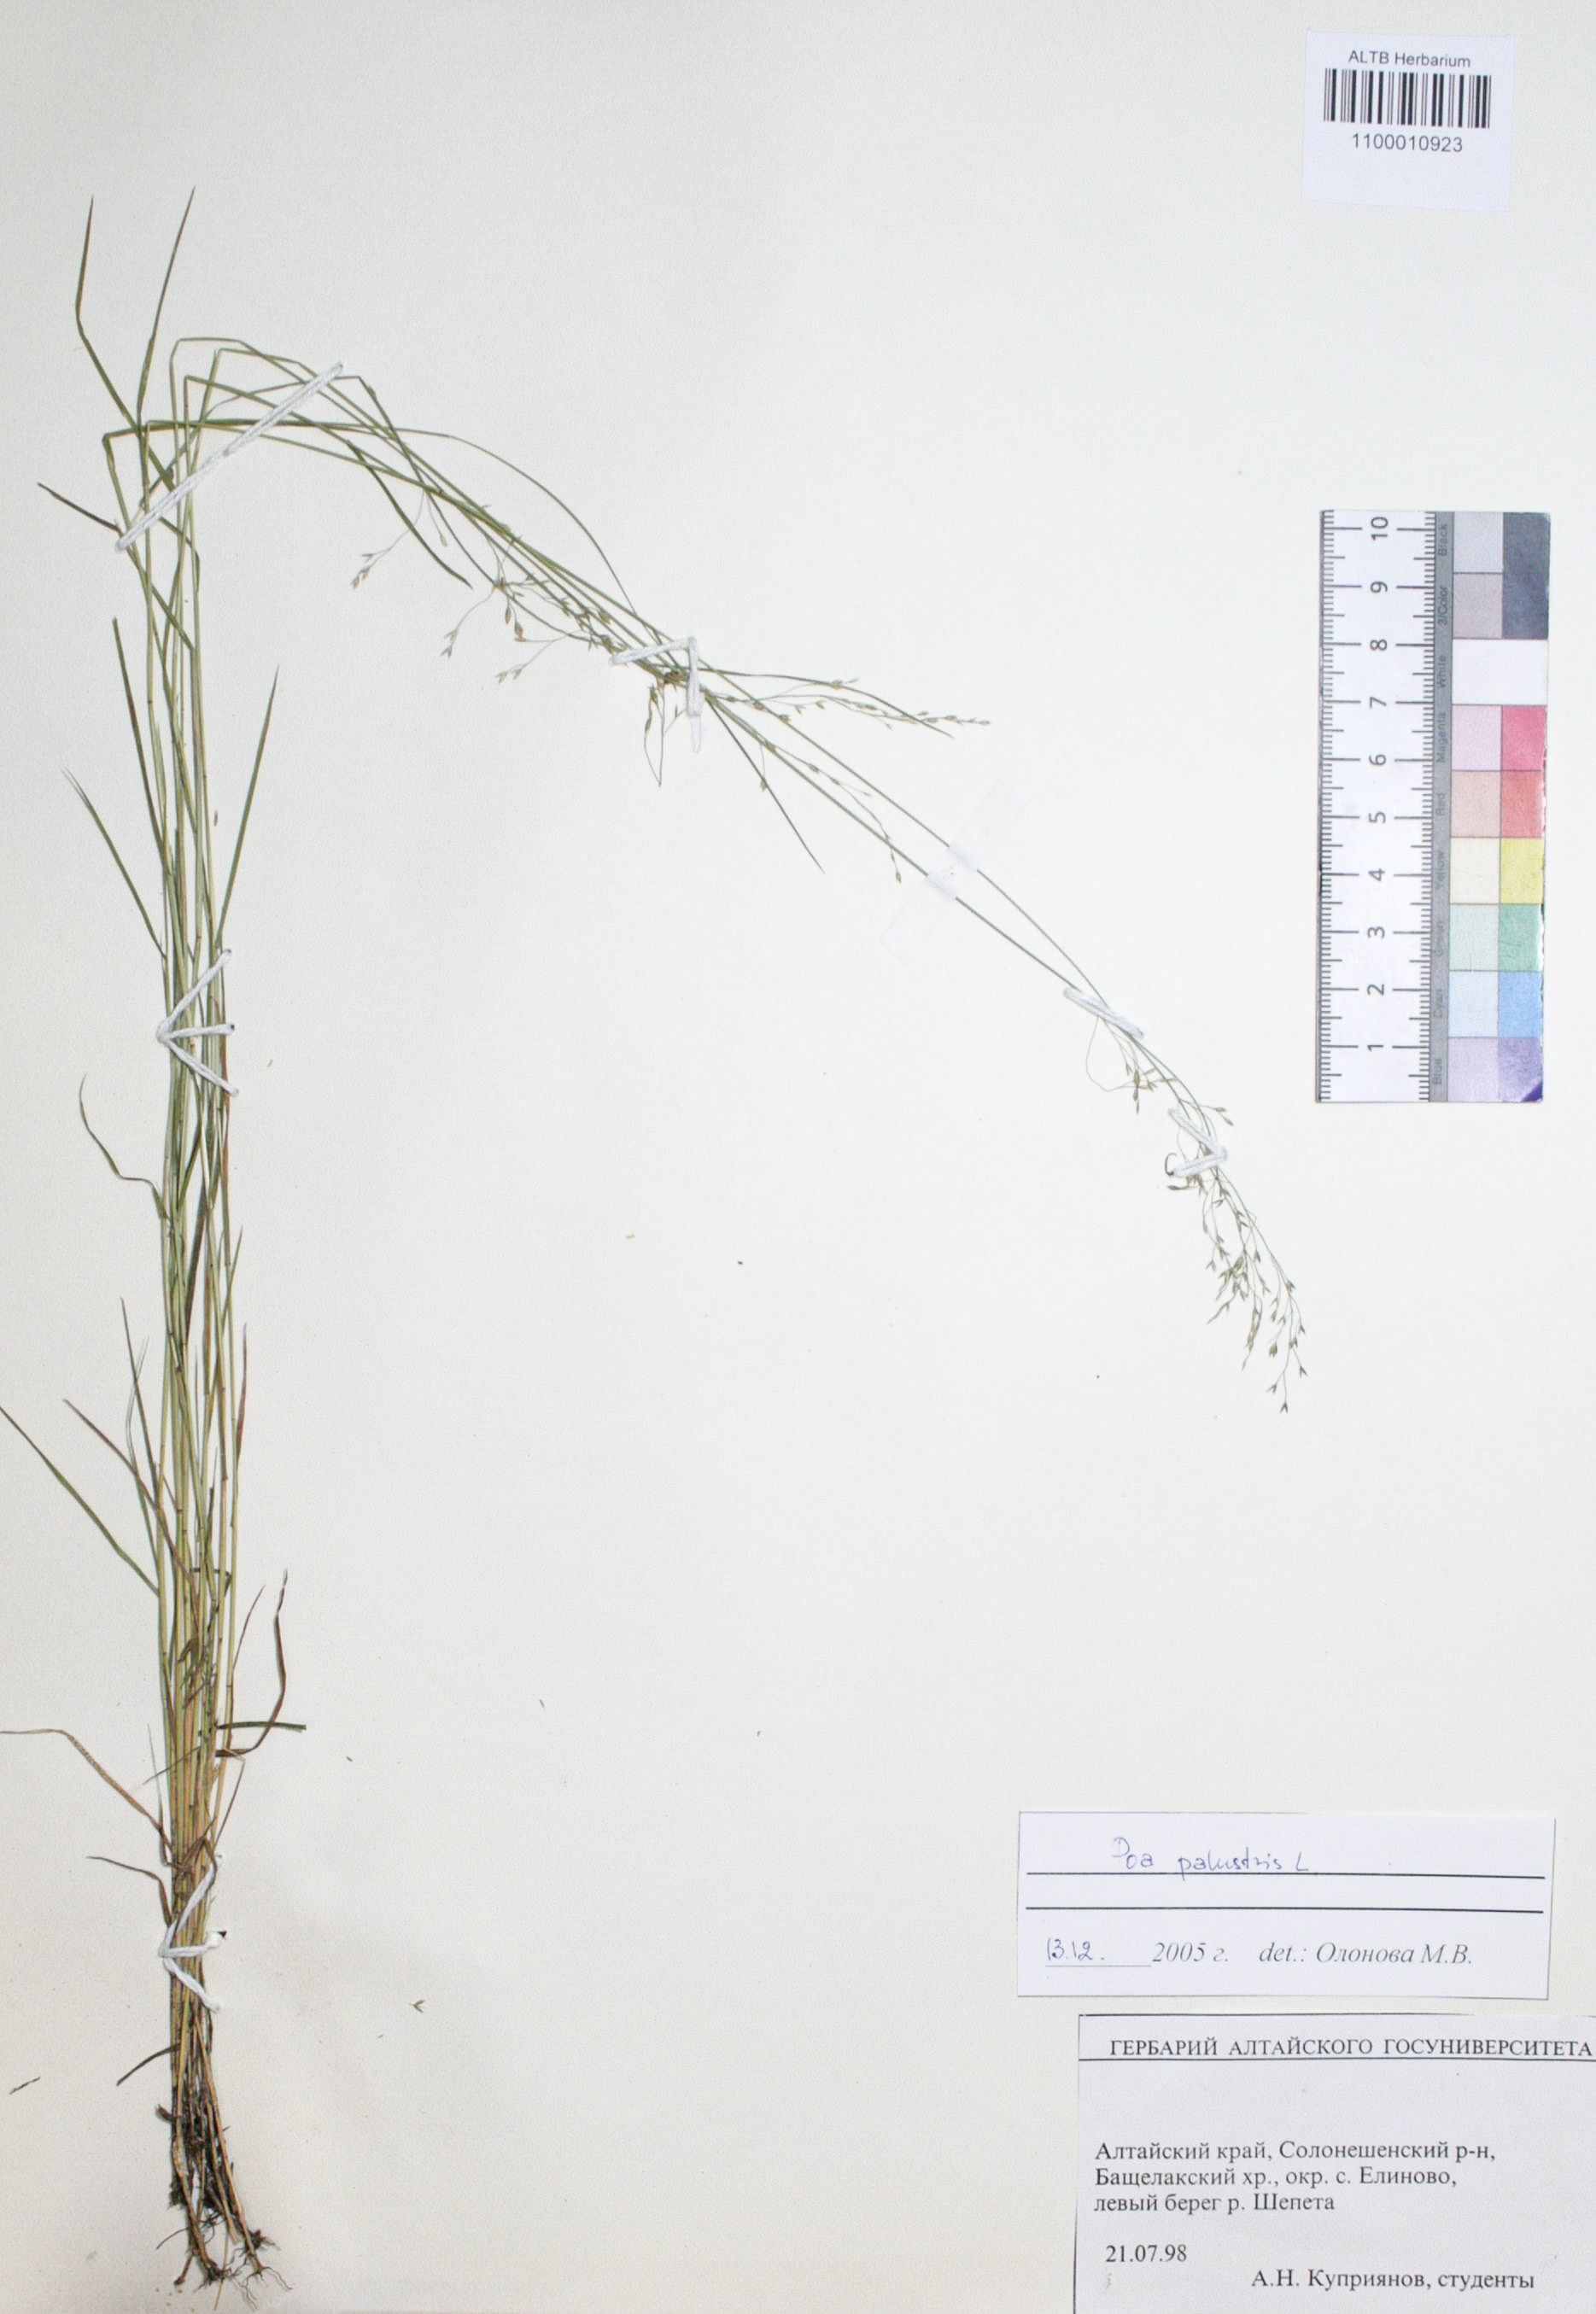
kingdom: Plantae
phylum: Tracheophyta
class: Liliopsida
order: Poales
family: Poaceae
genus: Poa
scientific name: Poa palustris
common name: Swamp meadow-grass
